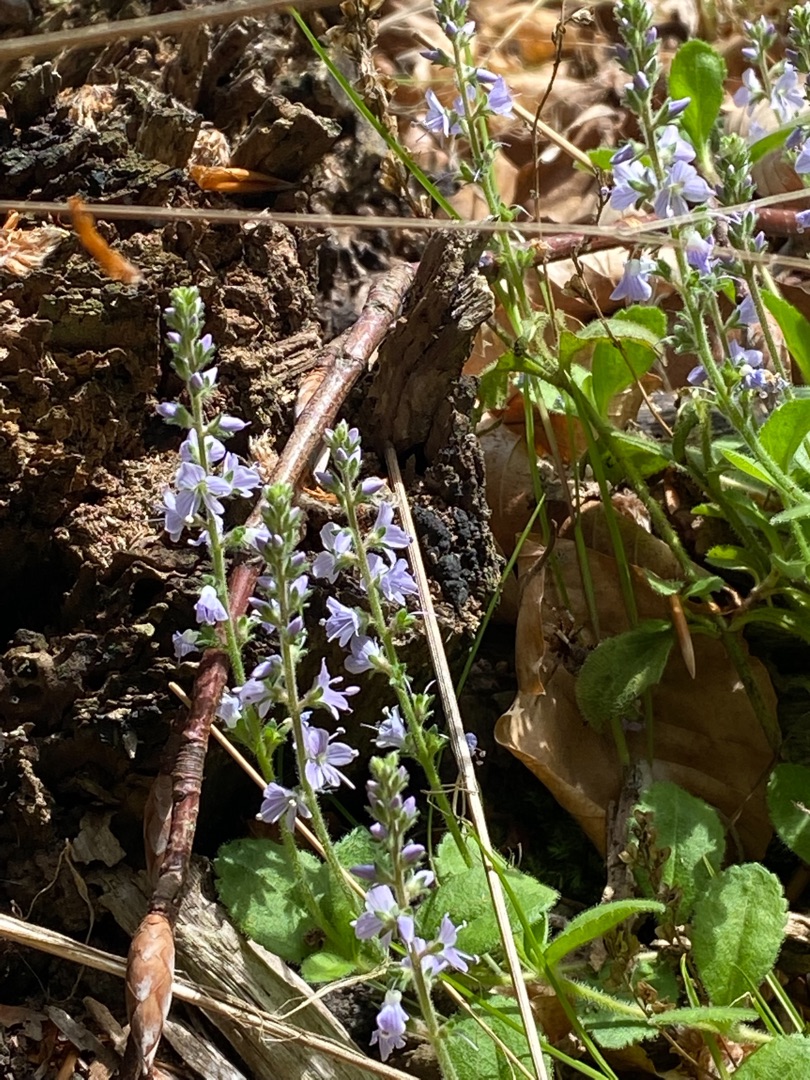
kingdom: Plantae
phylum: Tracheophyta
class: Magnoliopsida
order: Lamiales
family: Plantaginaceae
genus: Veronica
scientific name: Veronica officinalis
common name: Læge-ærenpris
